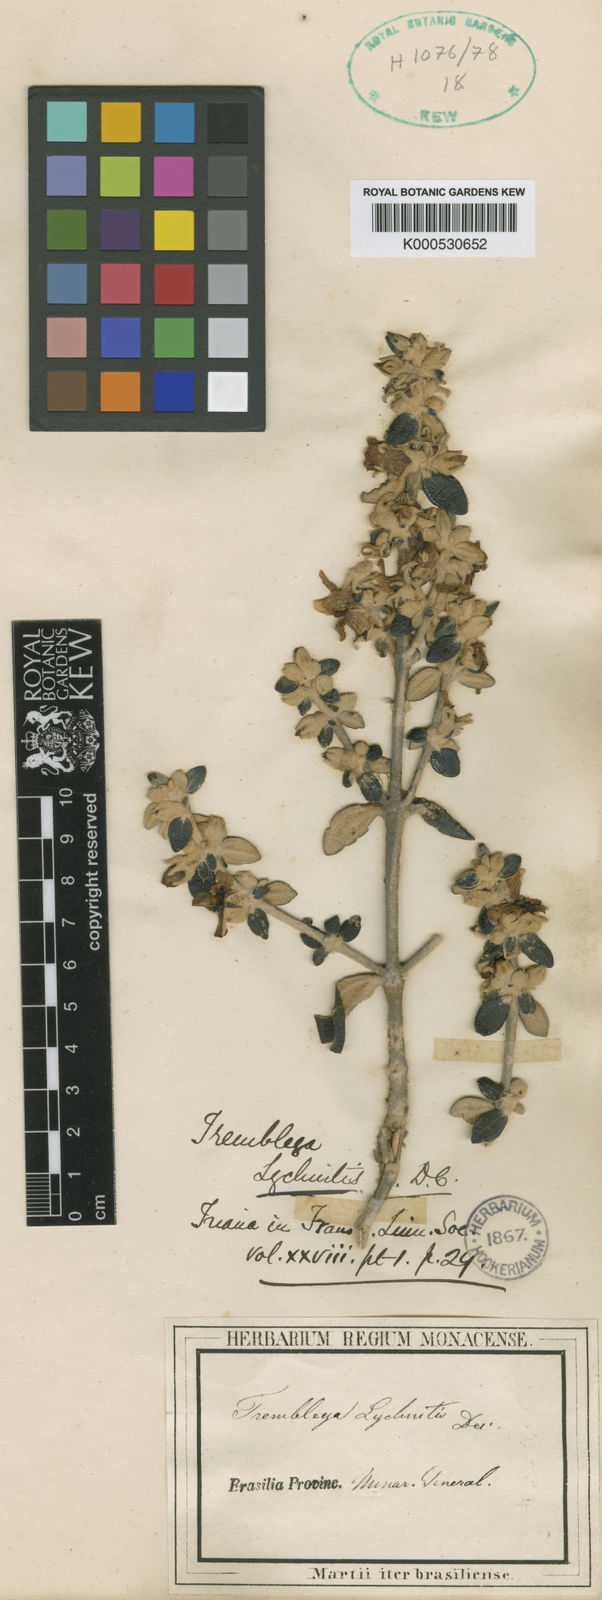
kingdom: Plantae
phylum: Tracheophyta
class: Magnoliopsida
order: Myrtales
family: Melastomataceae
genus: Microlicia
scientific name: Microlicia laniflora
